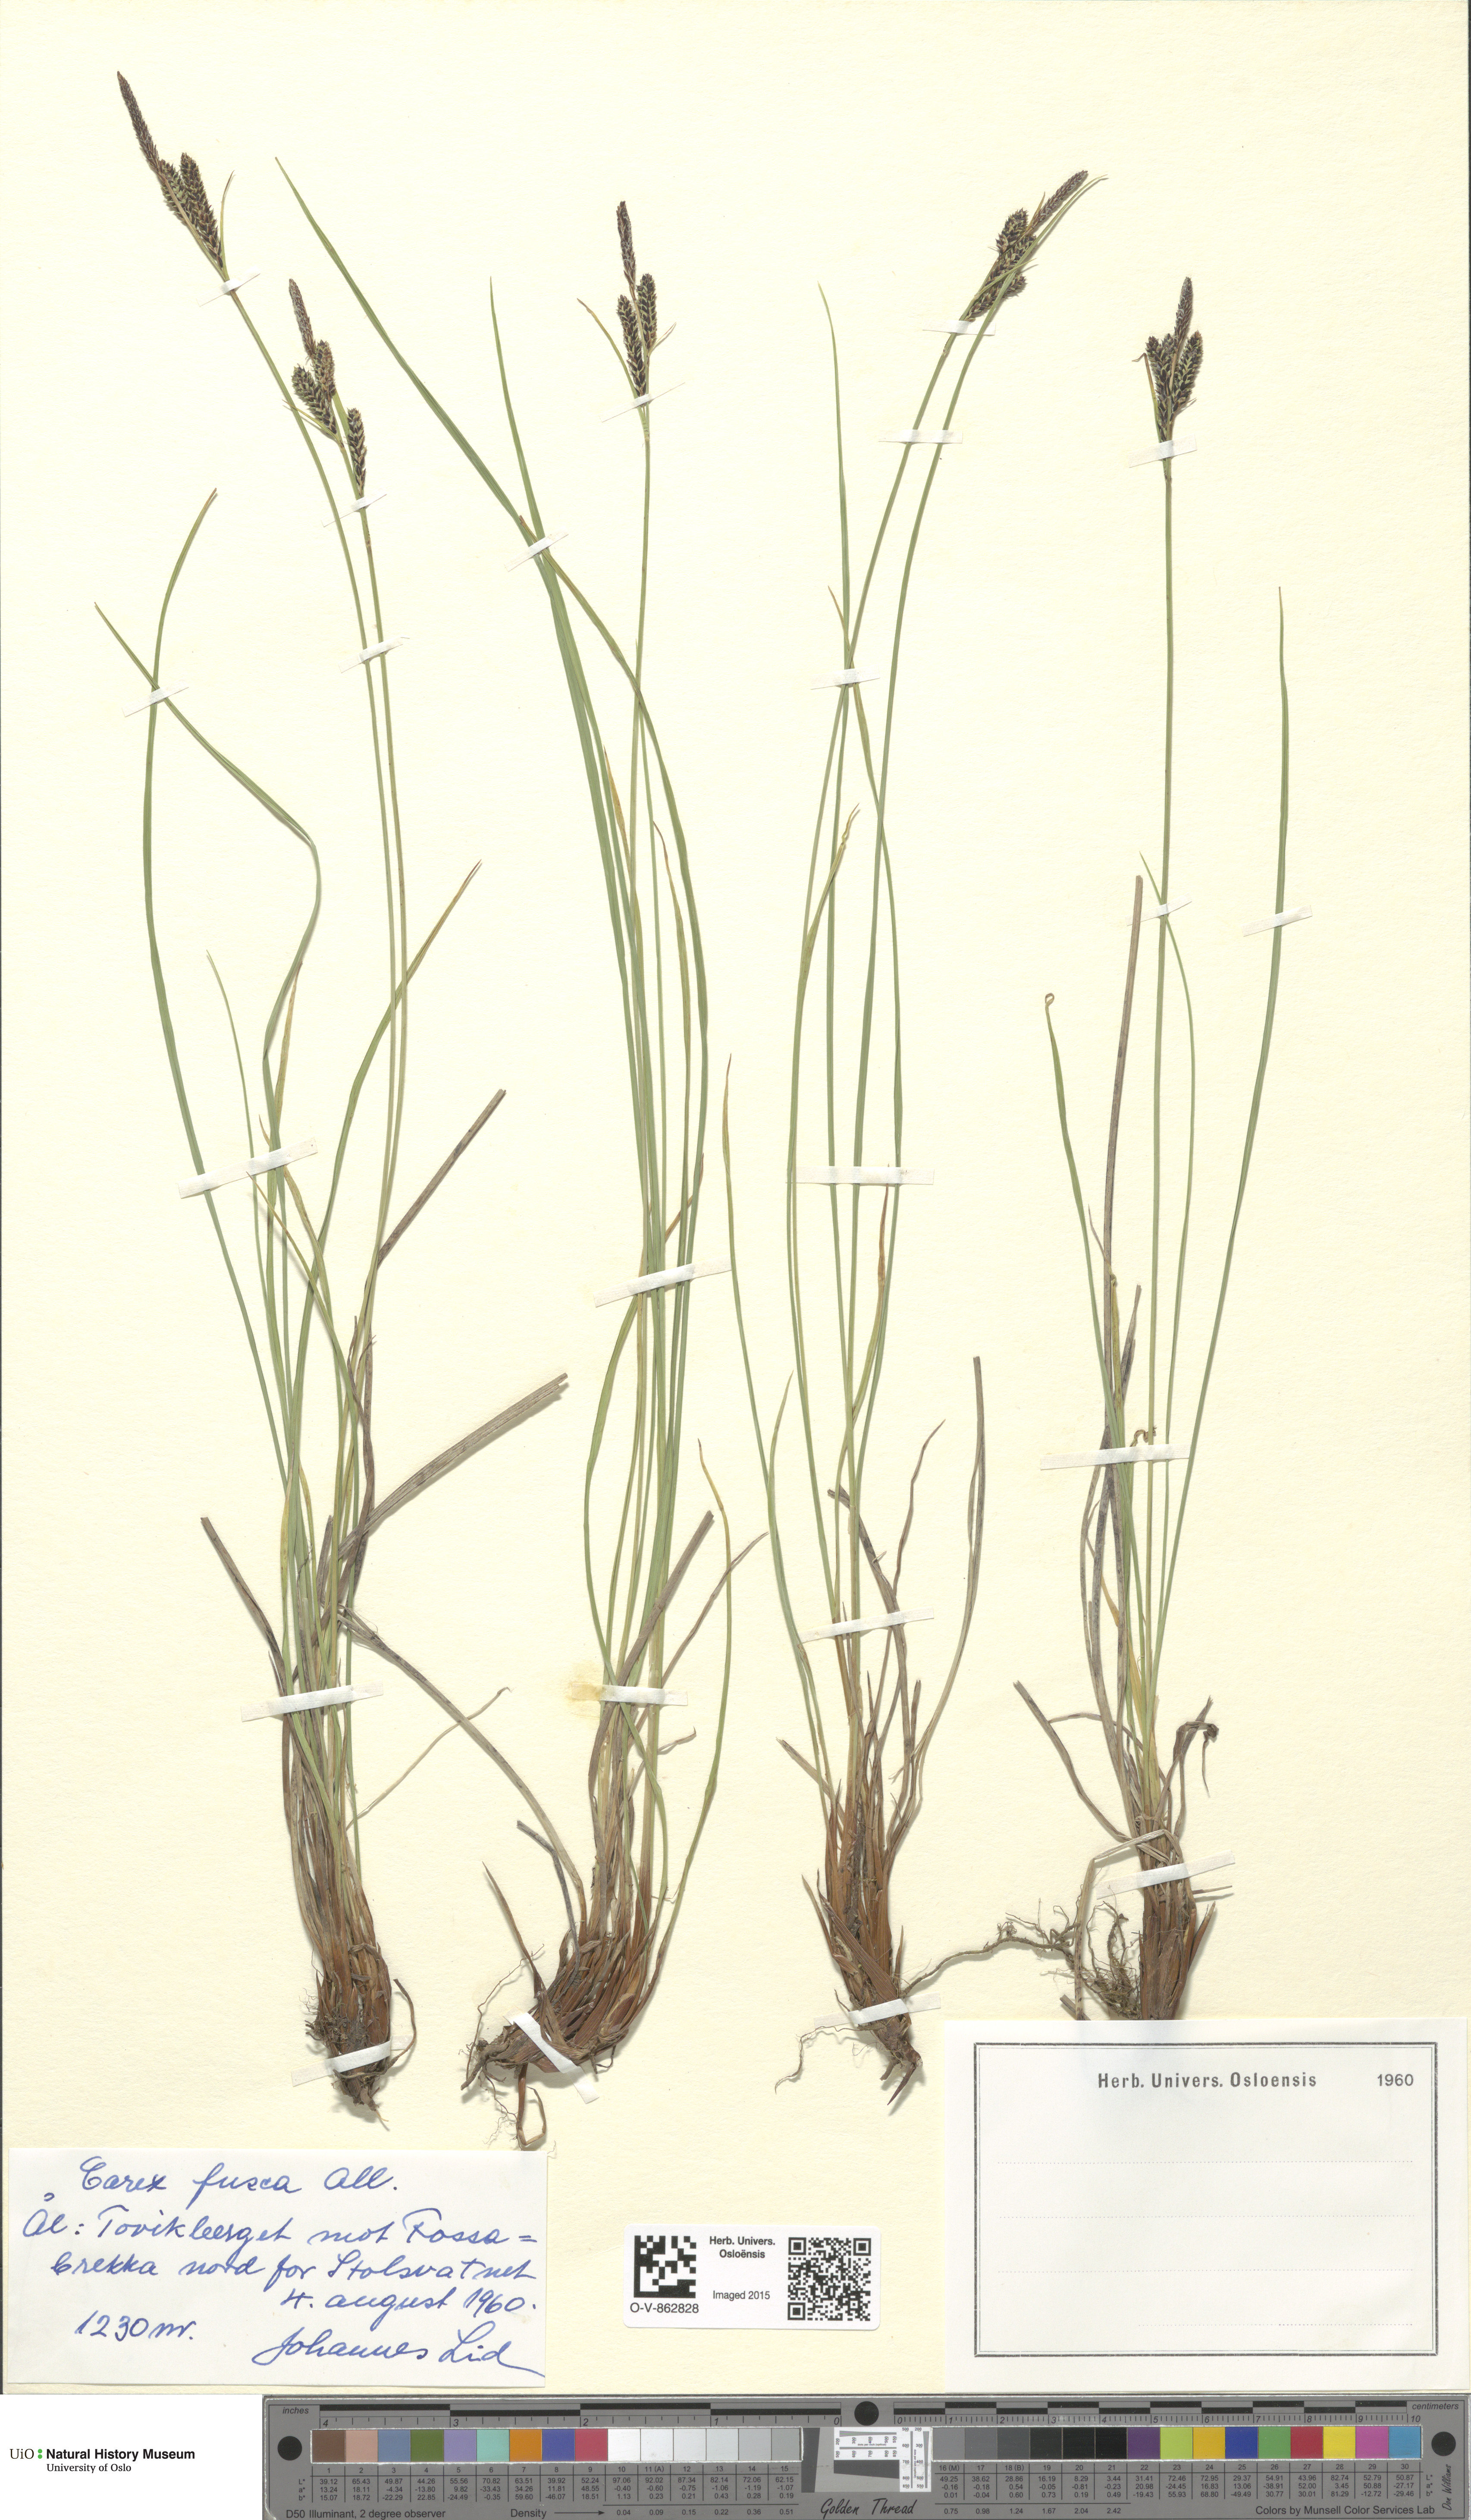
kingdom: Plantae
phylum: Tracheophyta
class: Liliopsida
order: Poales
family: Cyperaceae
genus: Carex
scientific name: Carex nigra
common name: Common sedge
